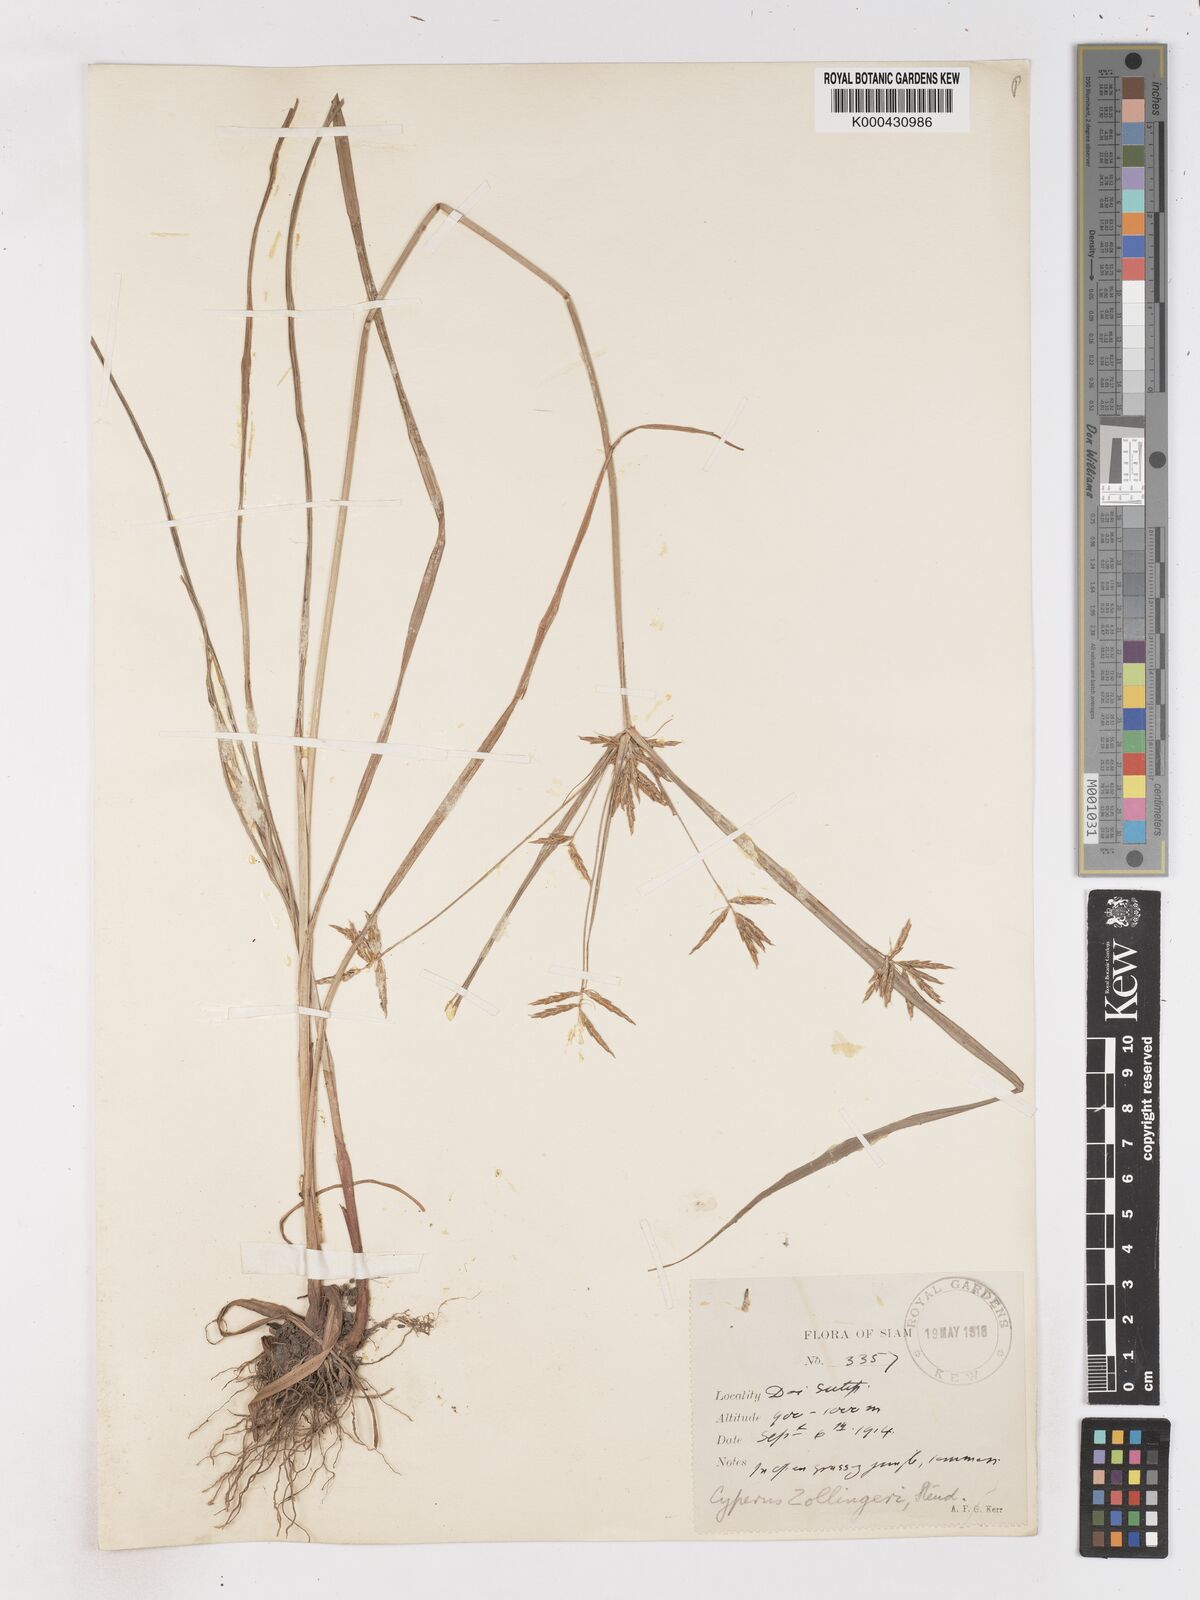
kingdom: Plantae
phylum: Tracheophyta
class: Liliopsida
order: Poales
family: Cyperaceae
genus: Cyperus
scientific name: Cyperus tenuiculmis
